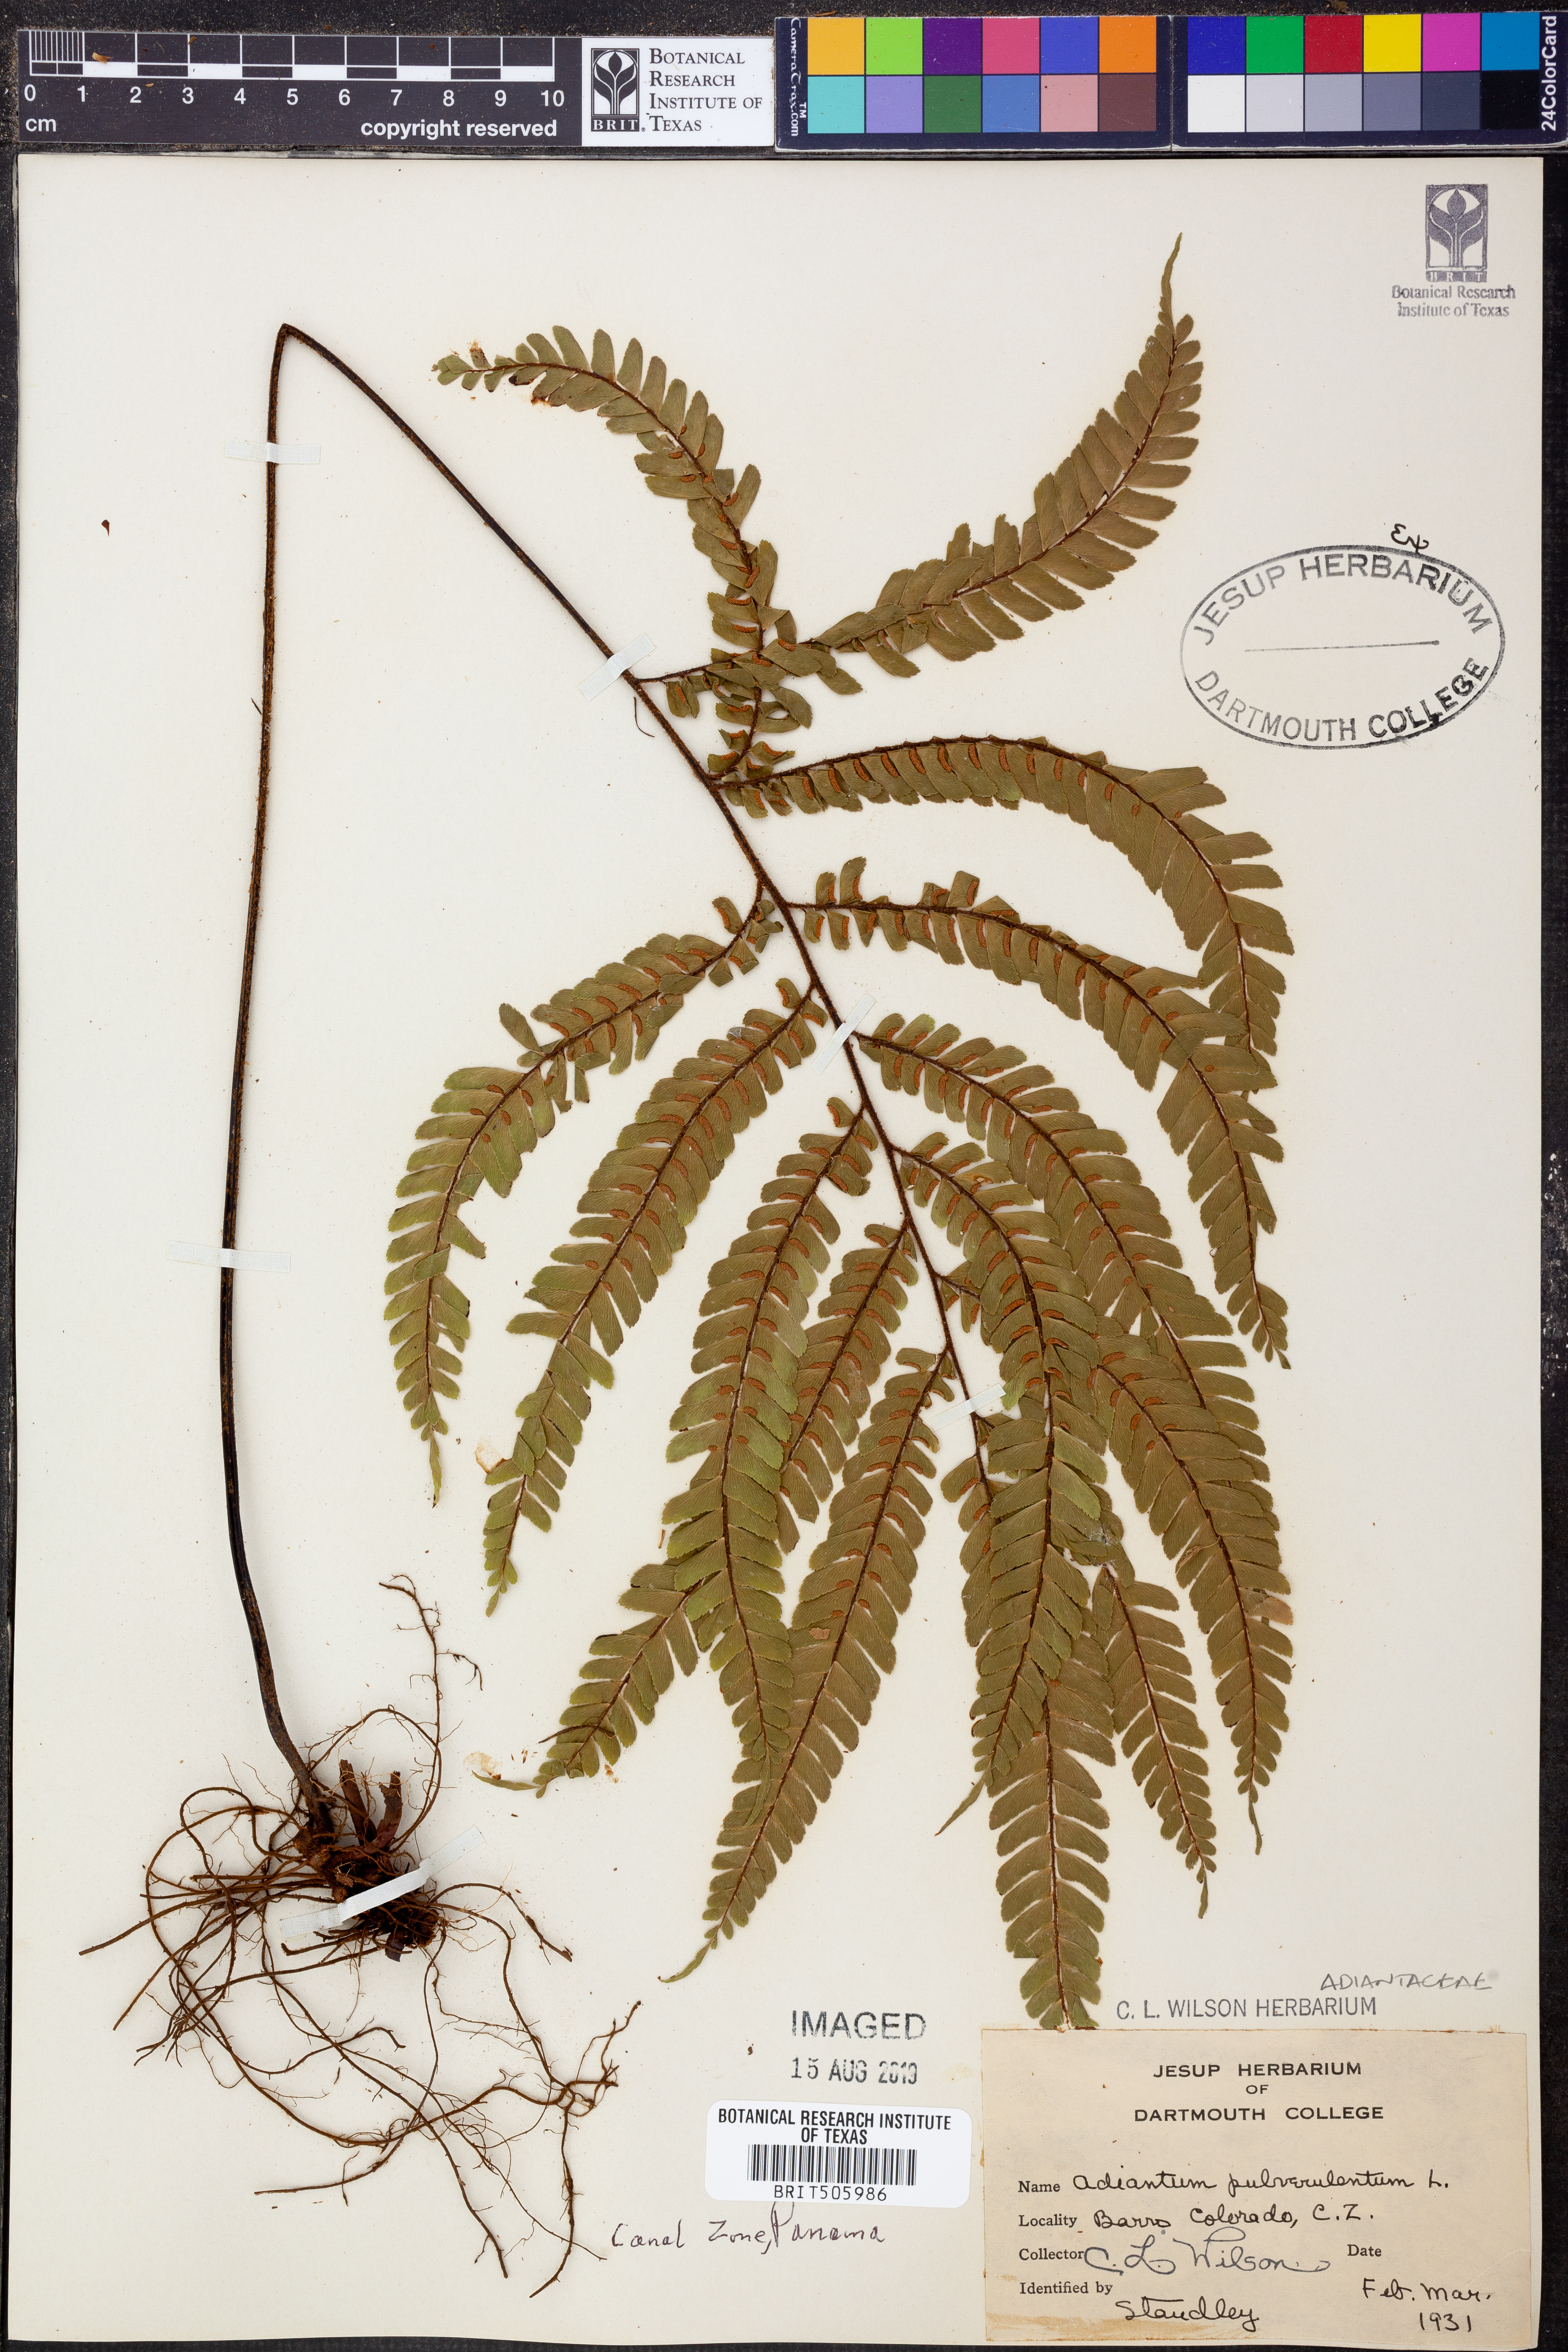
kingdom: Plantae
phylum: Tracheophyta
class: Polypodiopsida
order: Polypodiales
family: Pteridaceae
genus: Adiantum
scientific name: Adiantum pulverulentum
